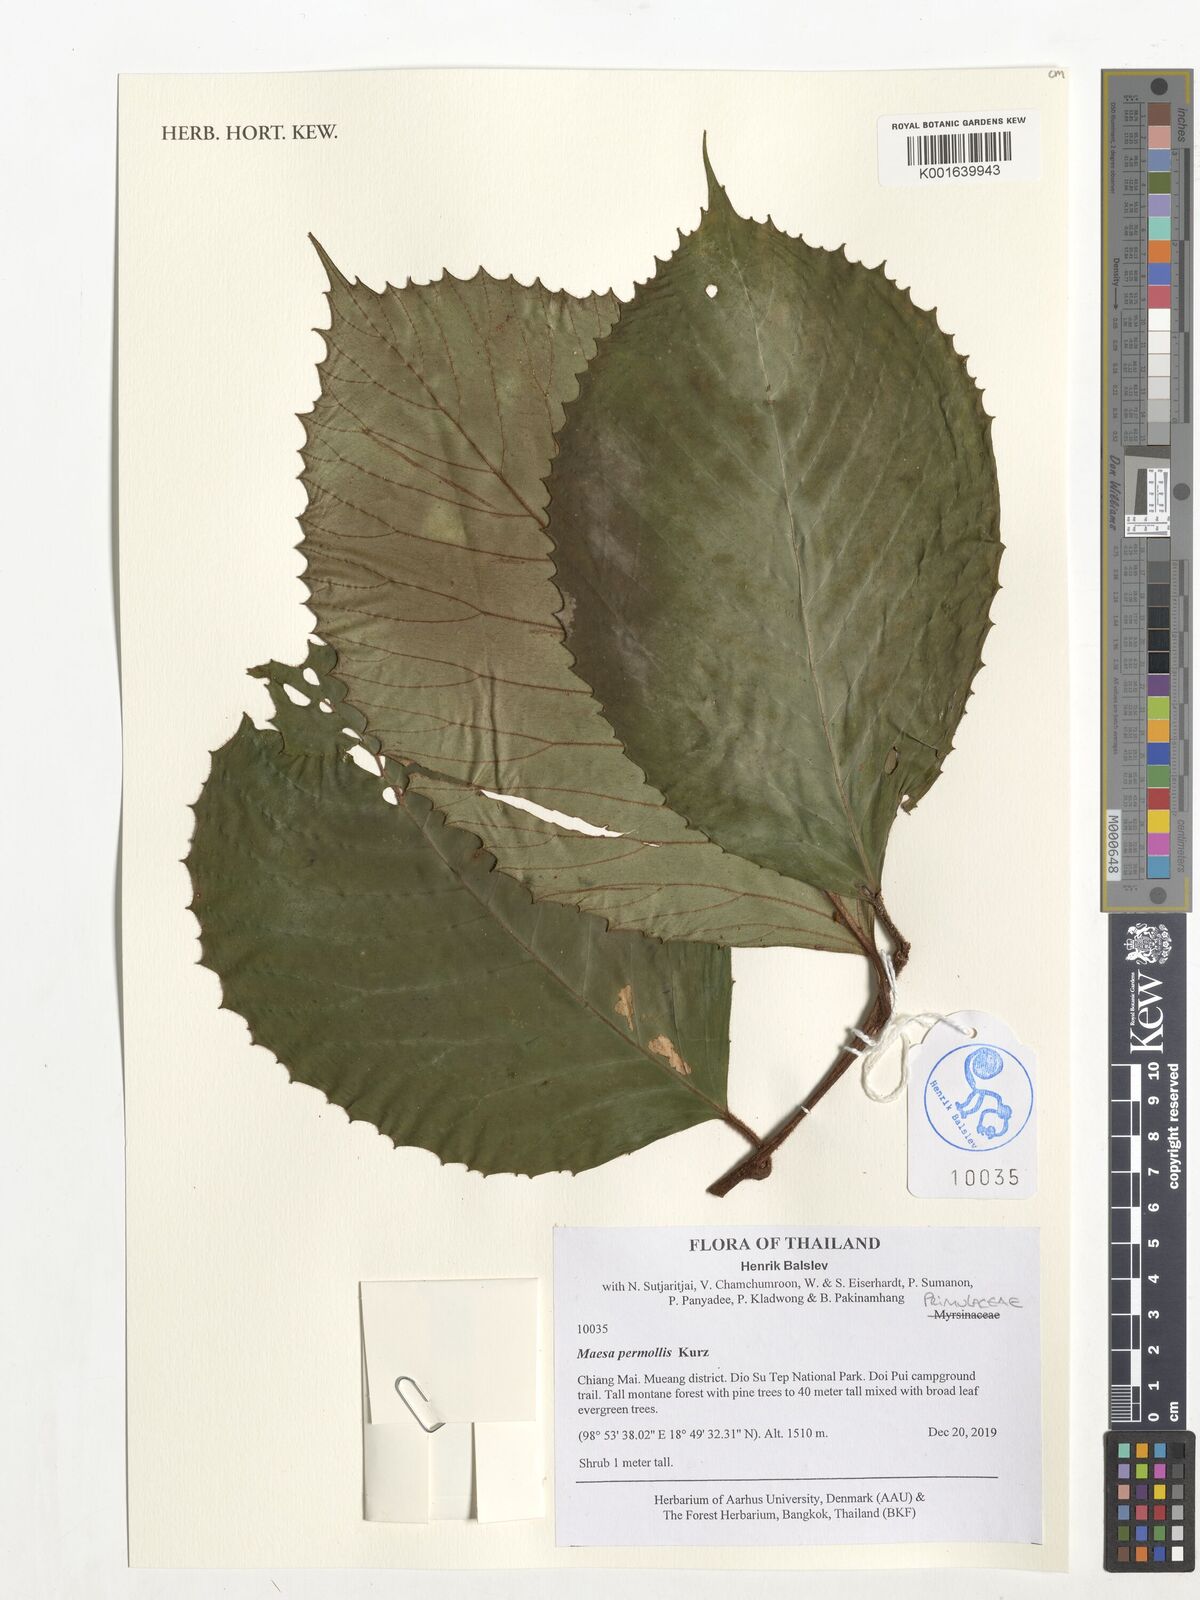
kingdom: Plantae
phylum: Tracheophyta
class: Magnoliopsida
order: Ericales
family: Primulaceae
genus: Maesa
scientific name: Maesa permollis
